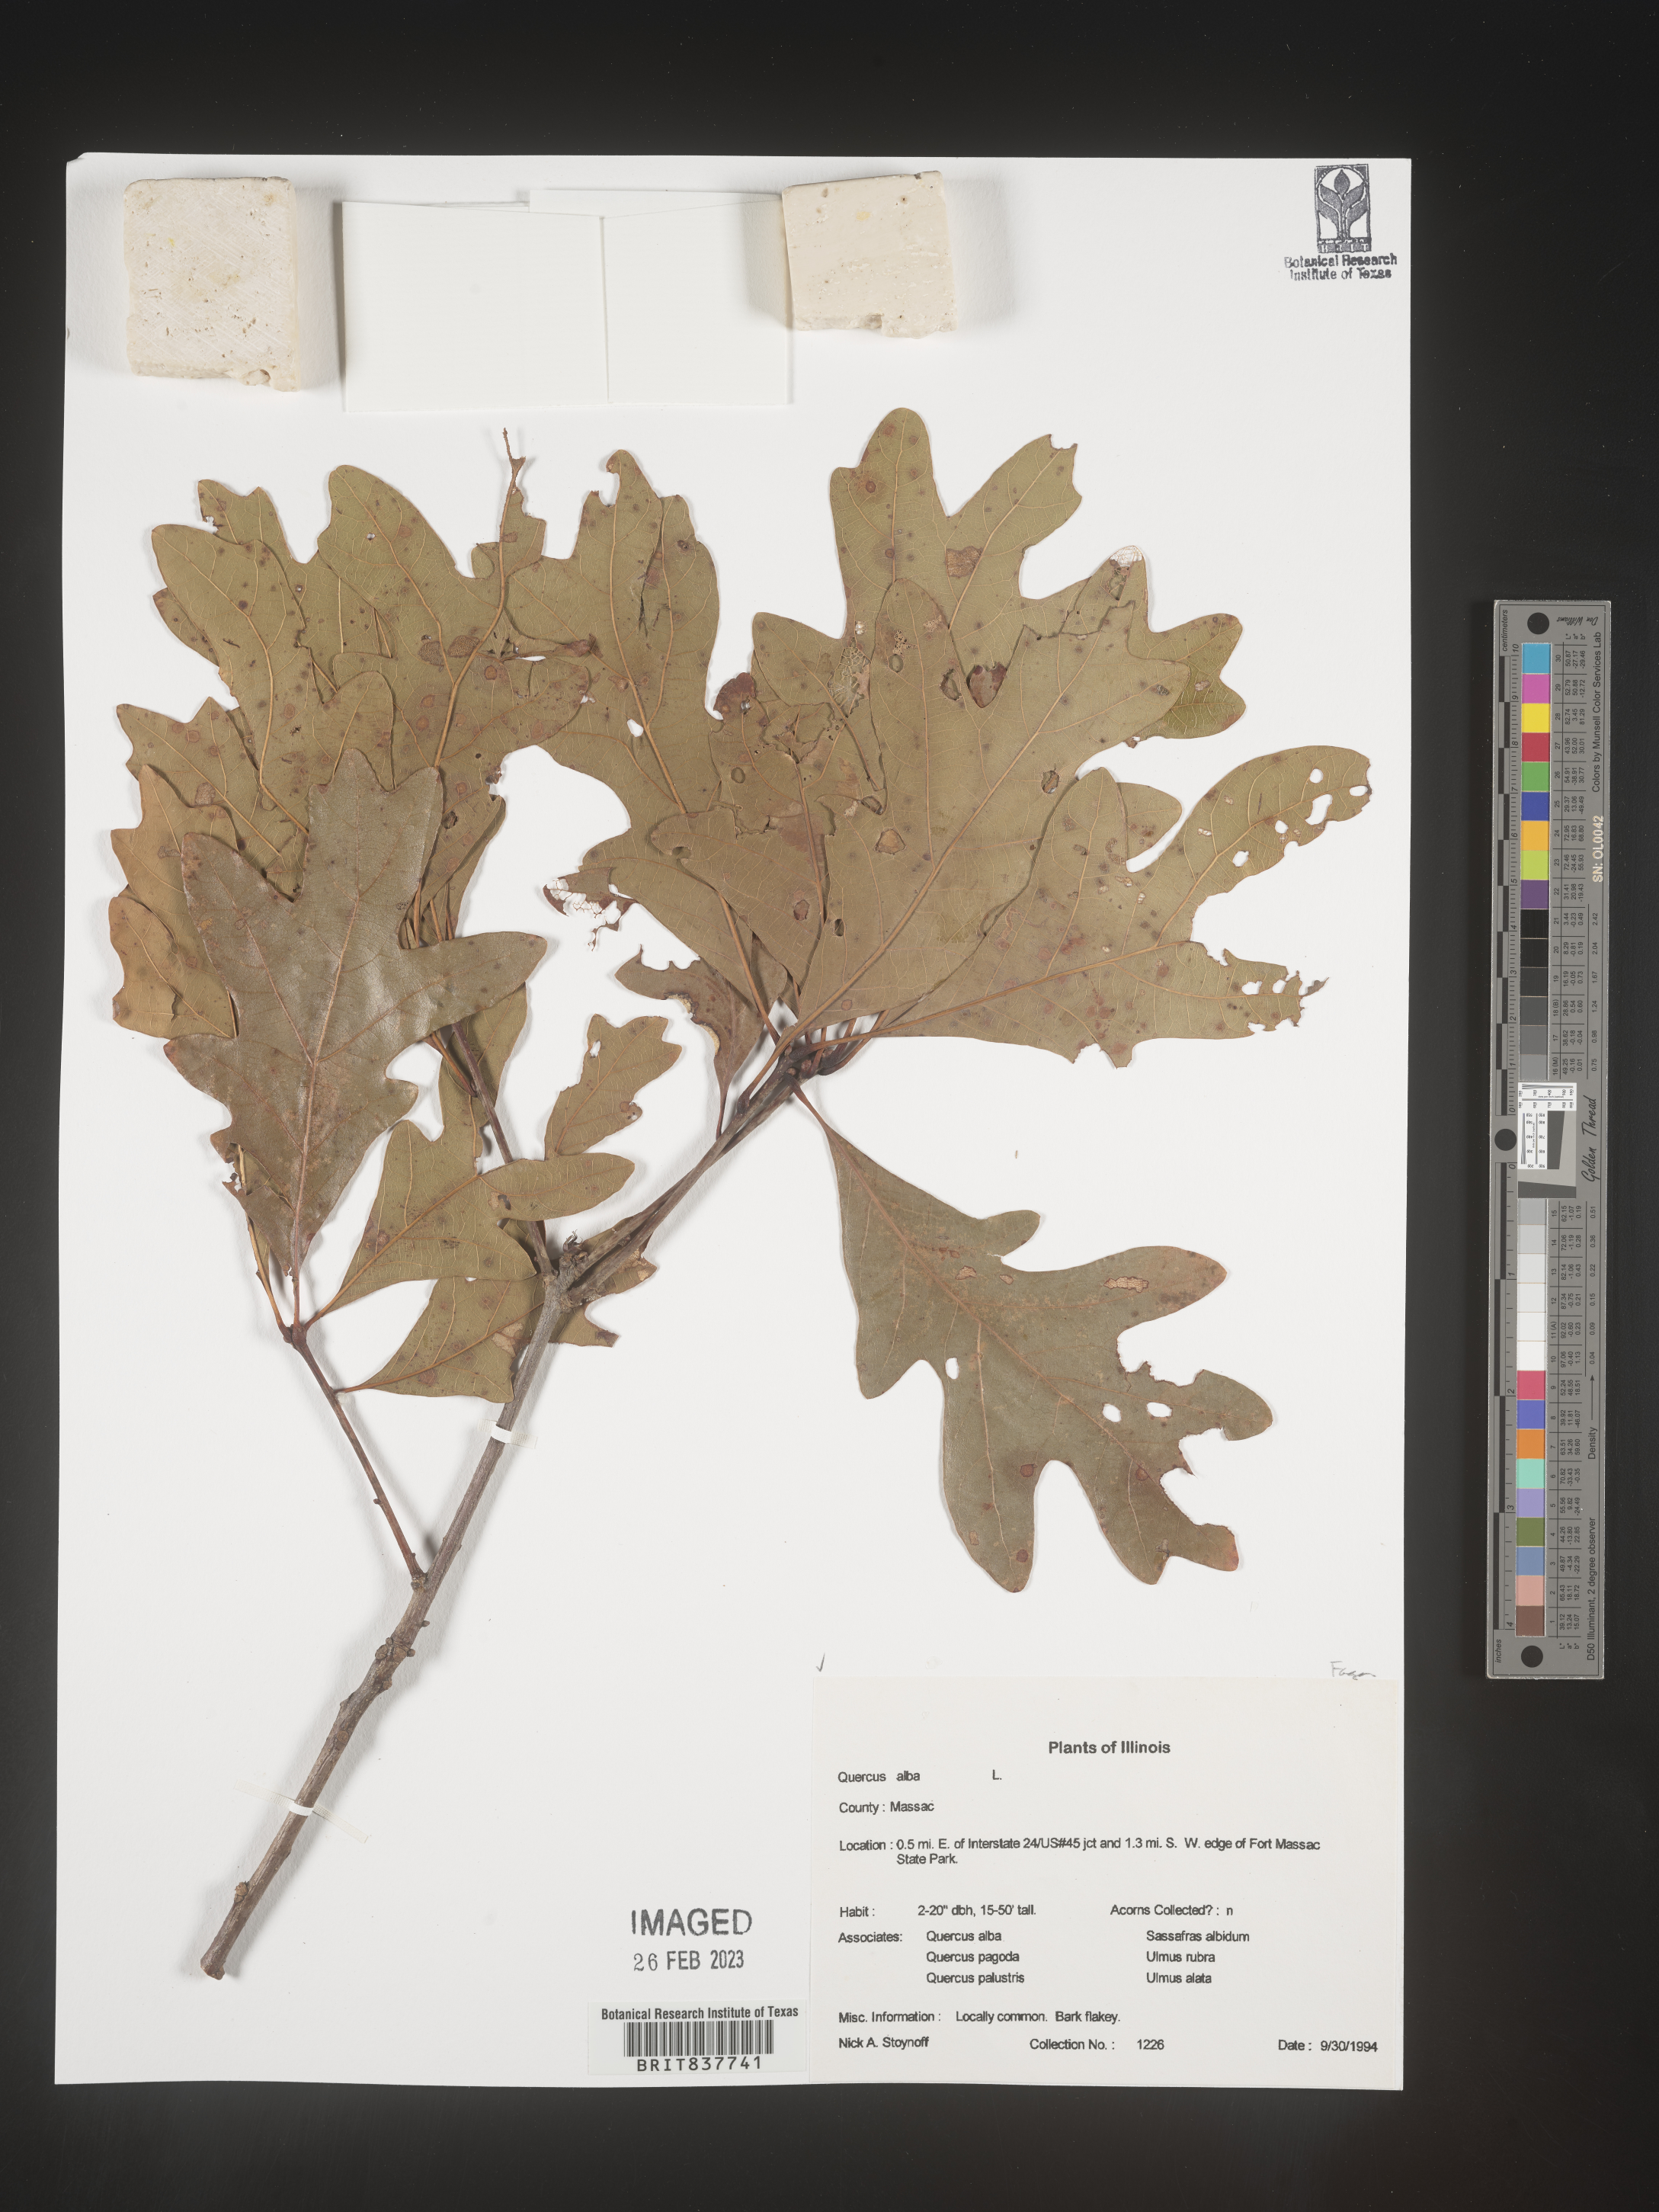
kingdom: Plantae
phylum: Tracheophyta
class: Magnoliopsida
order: Fagales
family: Fagaceae
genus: Quercus
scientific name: Quercus alba
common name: White oak
